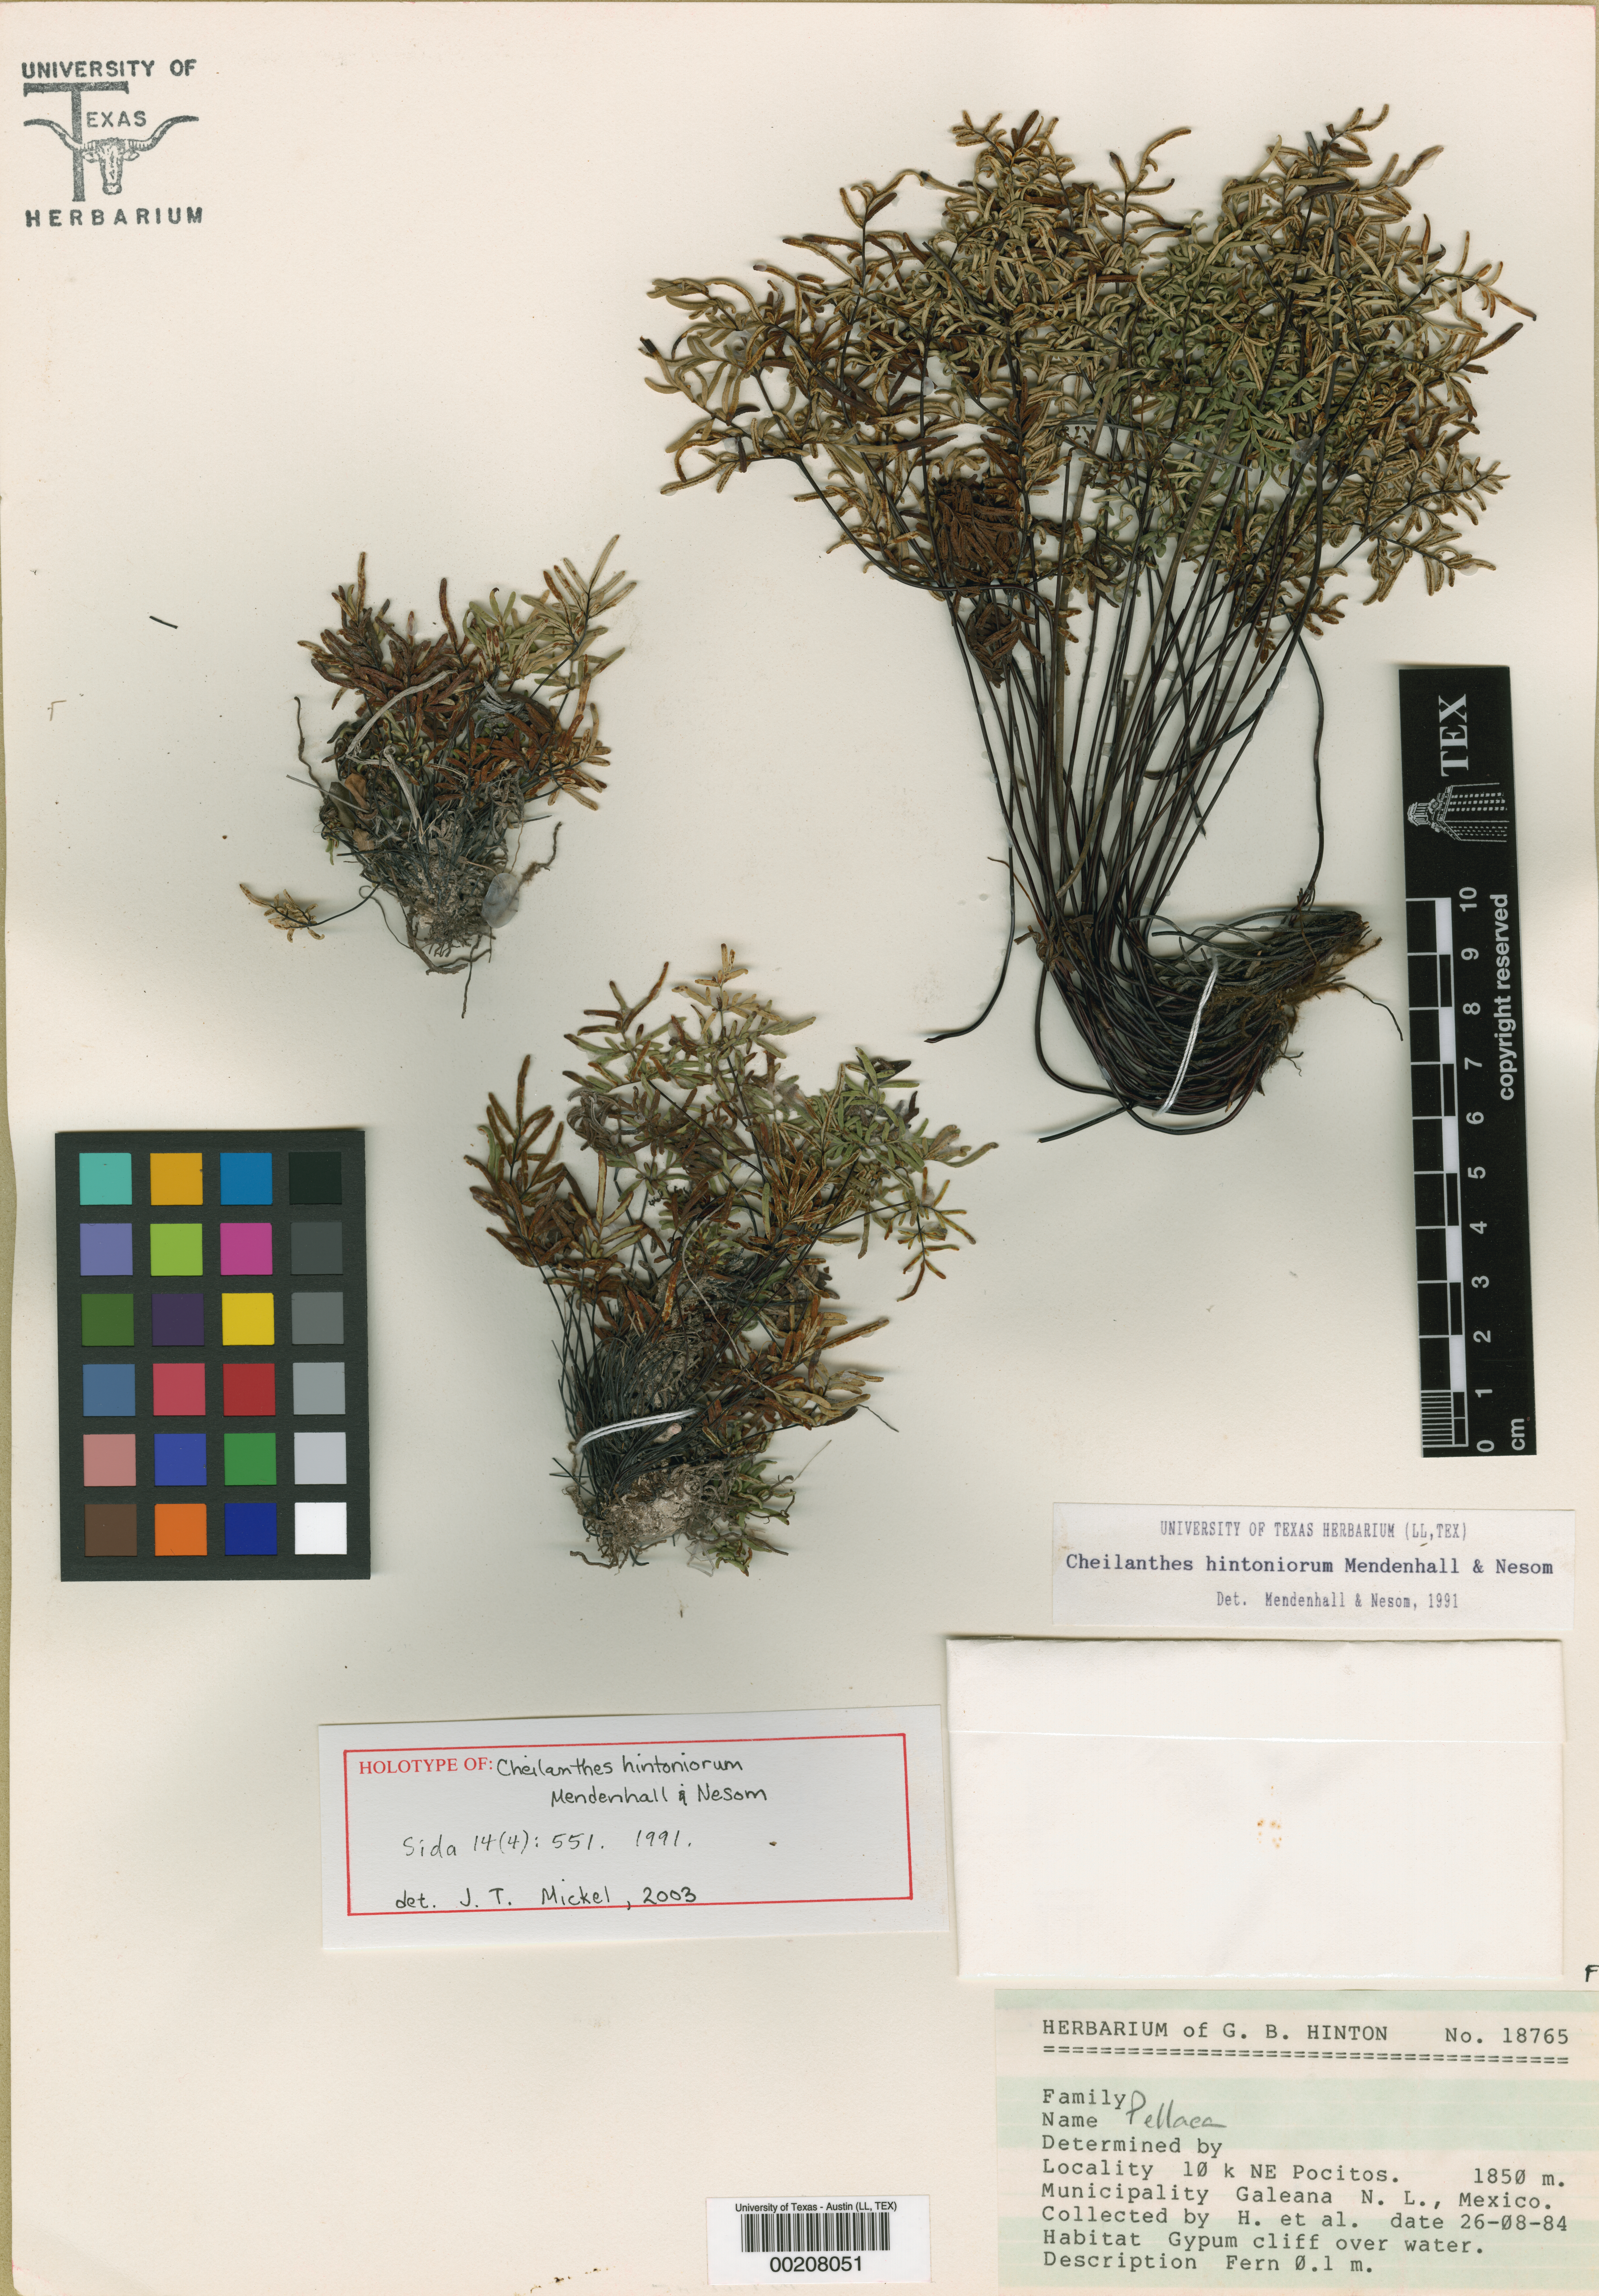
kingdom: Plantae
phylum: Tracheophyta
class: Polypodiopsida
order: Polypodiales
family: Pteridaceae
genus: Gaga
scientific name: Gaga hintoniorum
